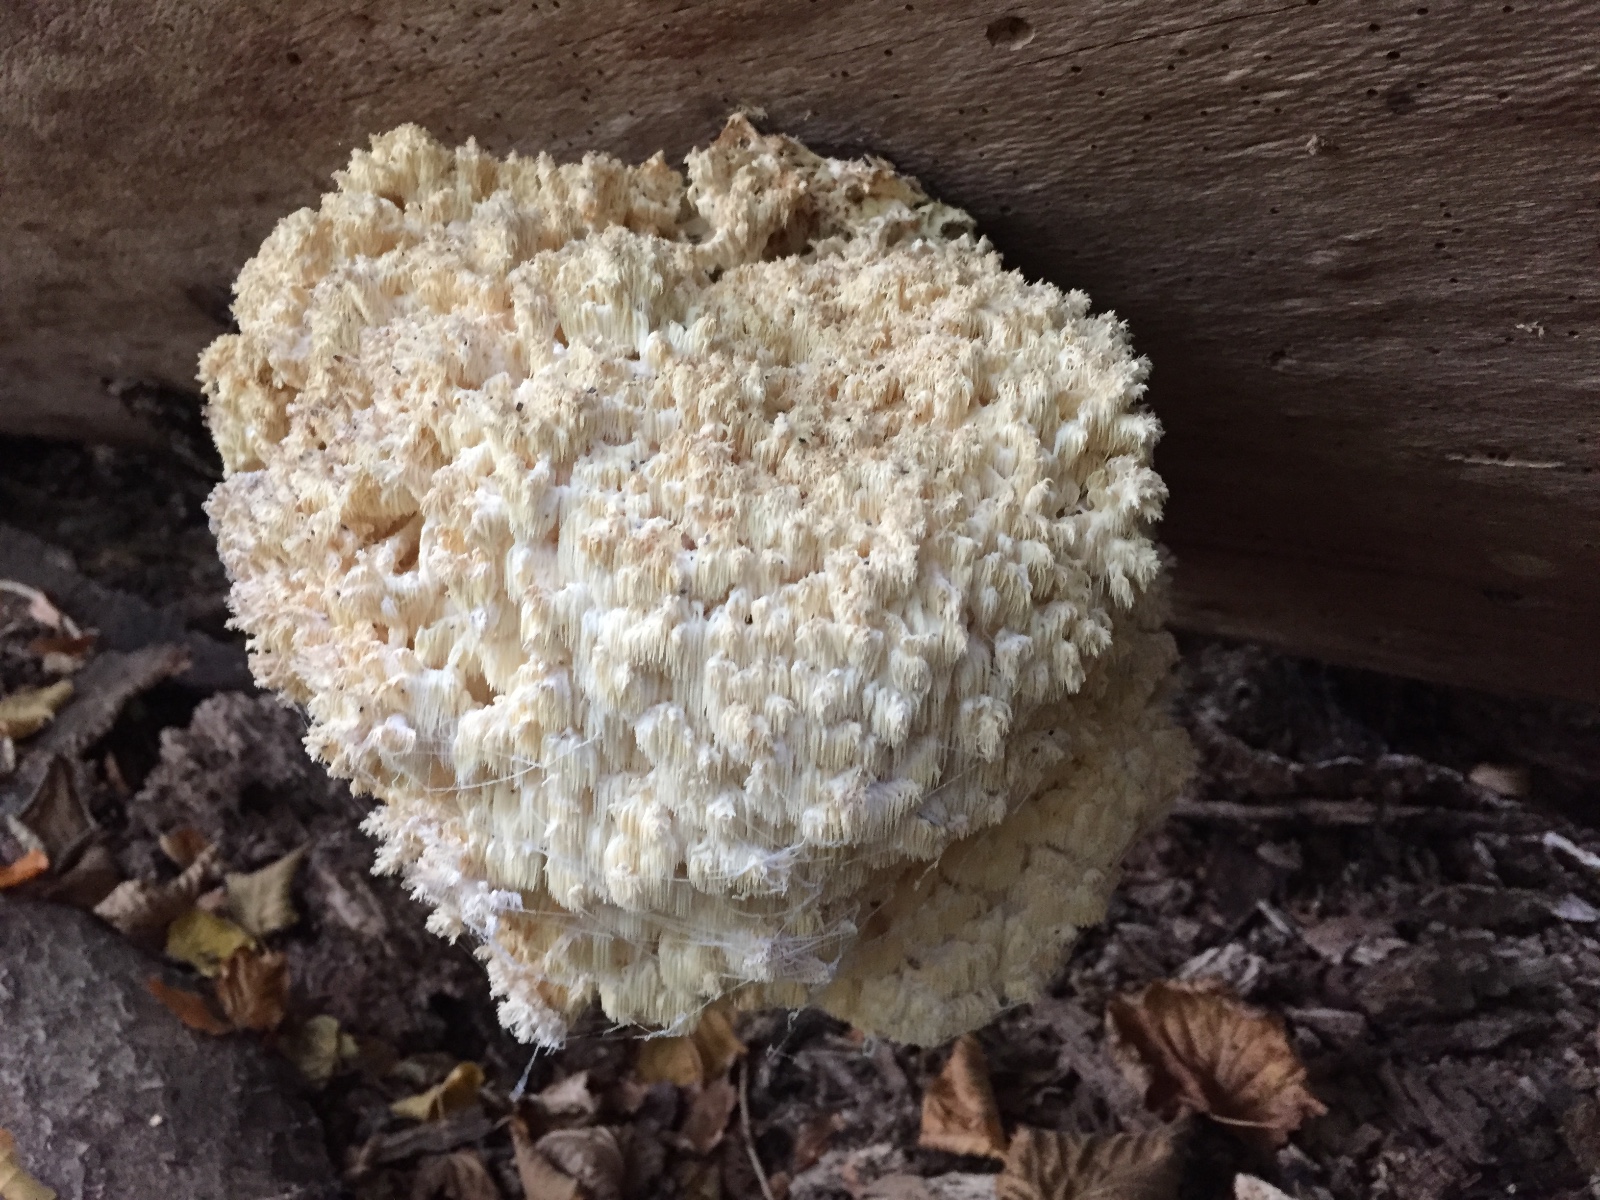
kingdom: Fungi
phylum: Basidiomycota
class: Agaricomycetes
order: Russulales
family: Hericiaceae
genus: Hericium
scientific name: Hericium coralloides
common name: koralpigsvamp
